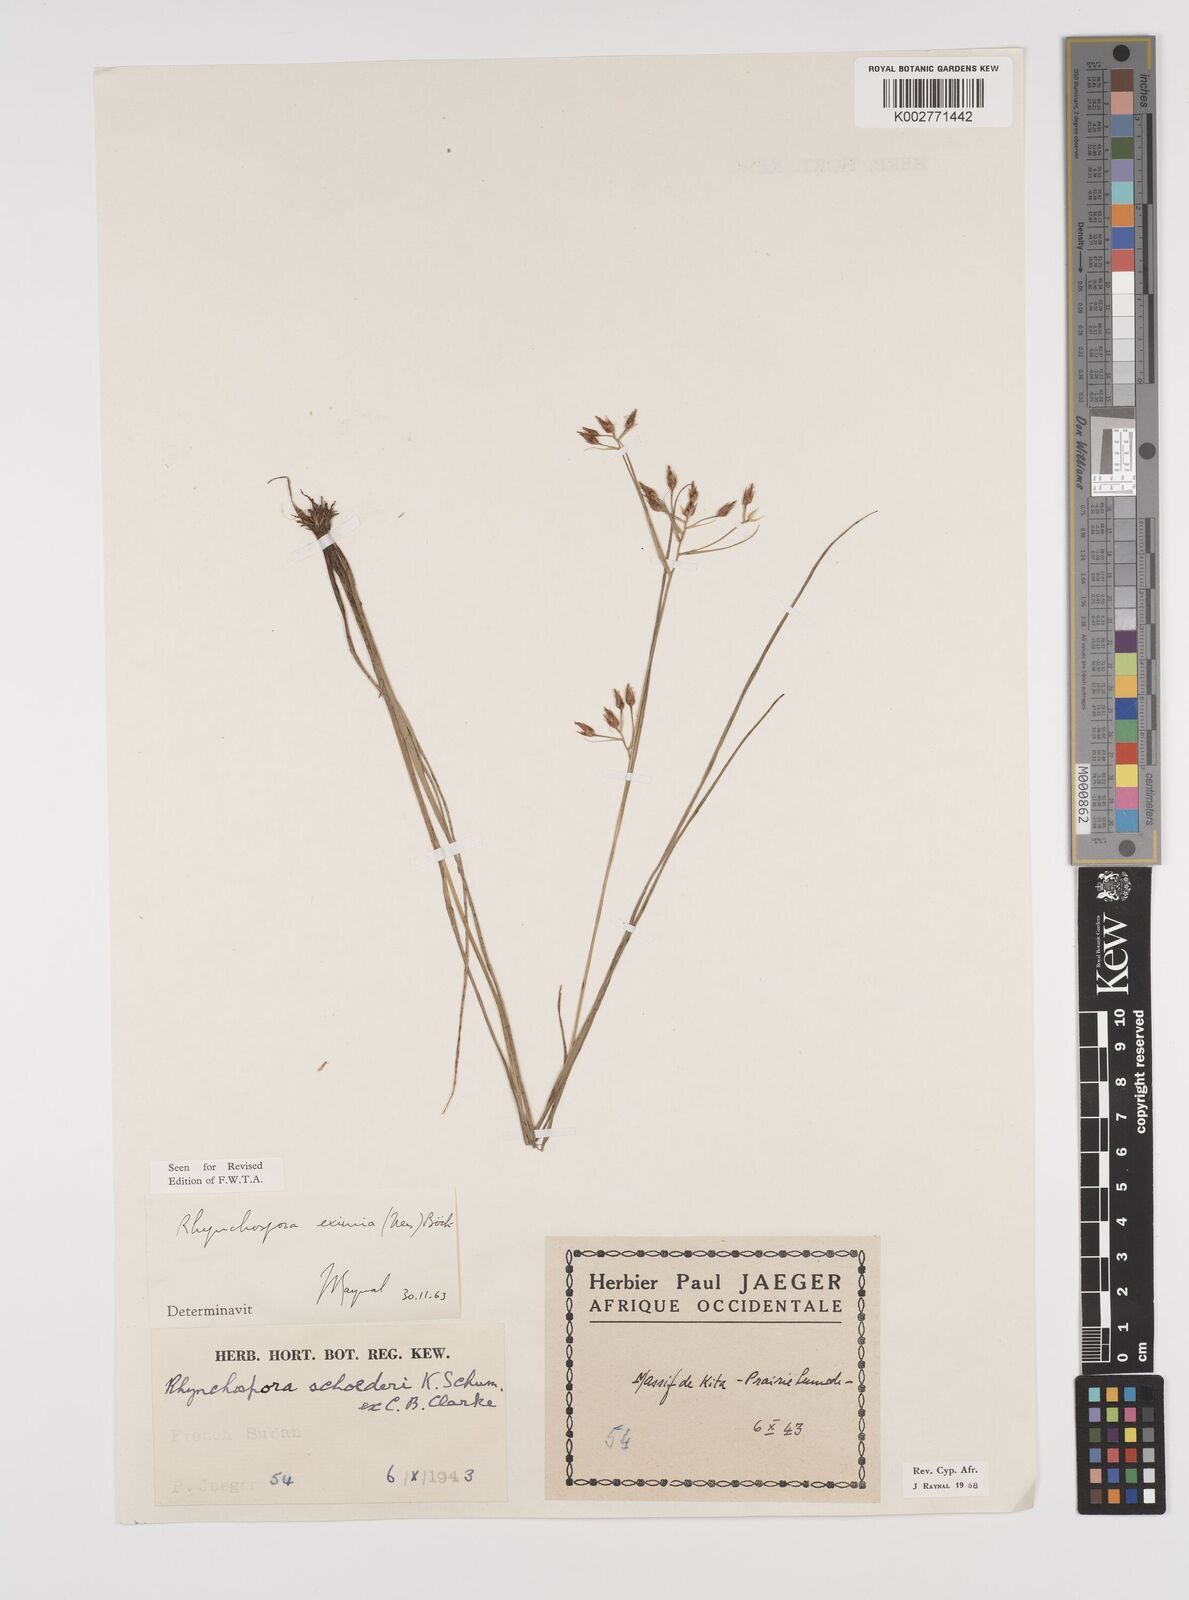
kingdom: Plantae
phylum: Tracheophyta
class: Liliopsida
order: Poales
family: Cyperaceae
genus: Rhynchospora
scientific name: Rhynchospora eximia
